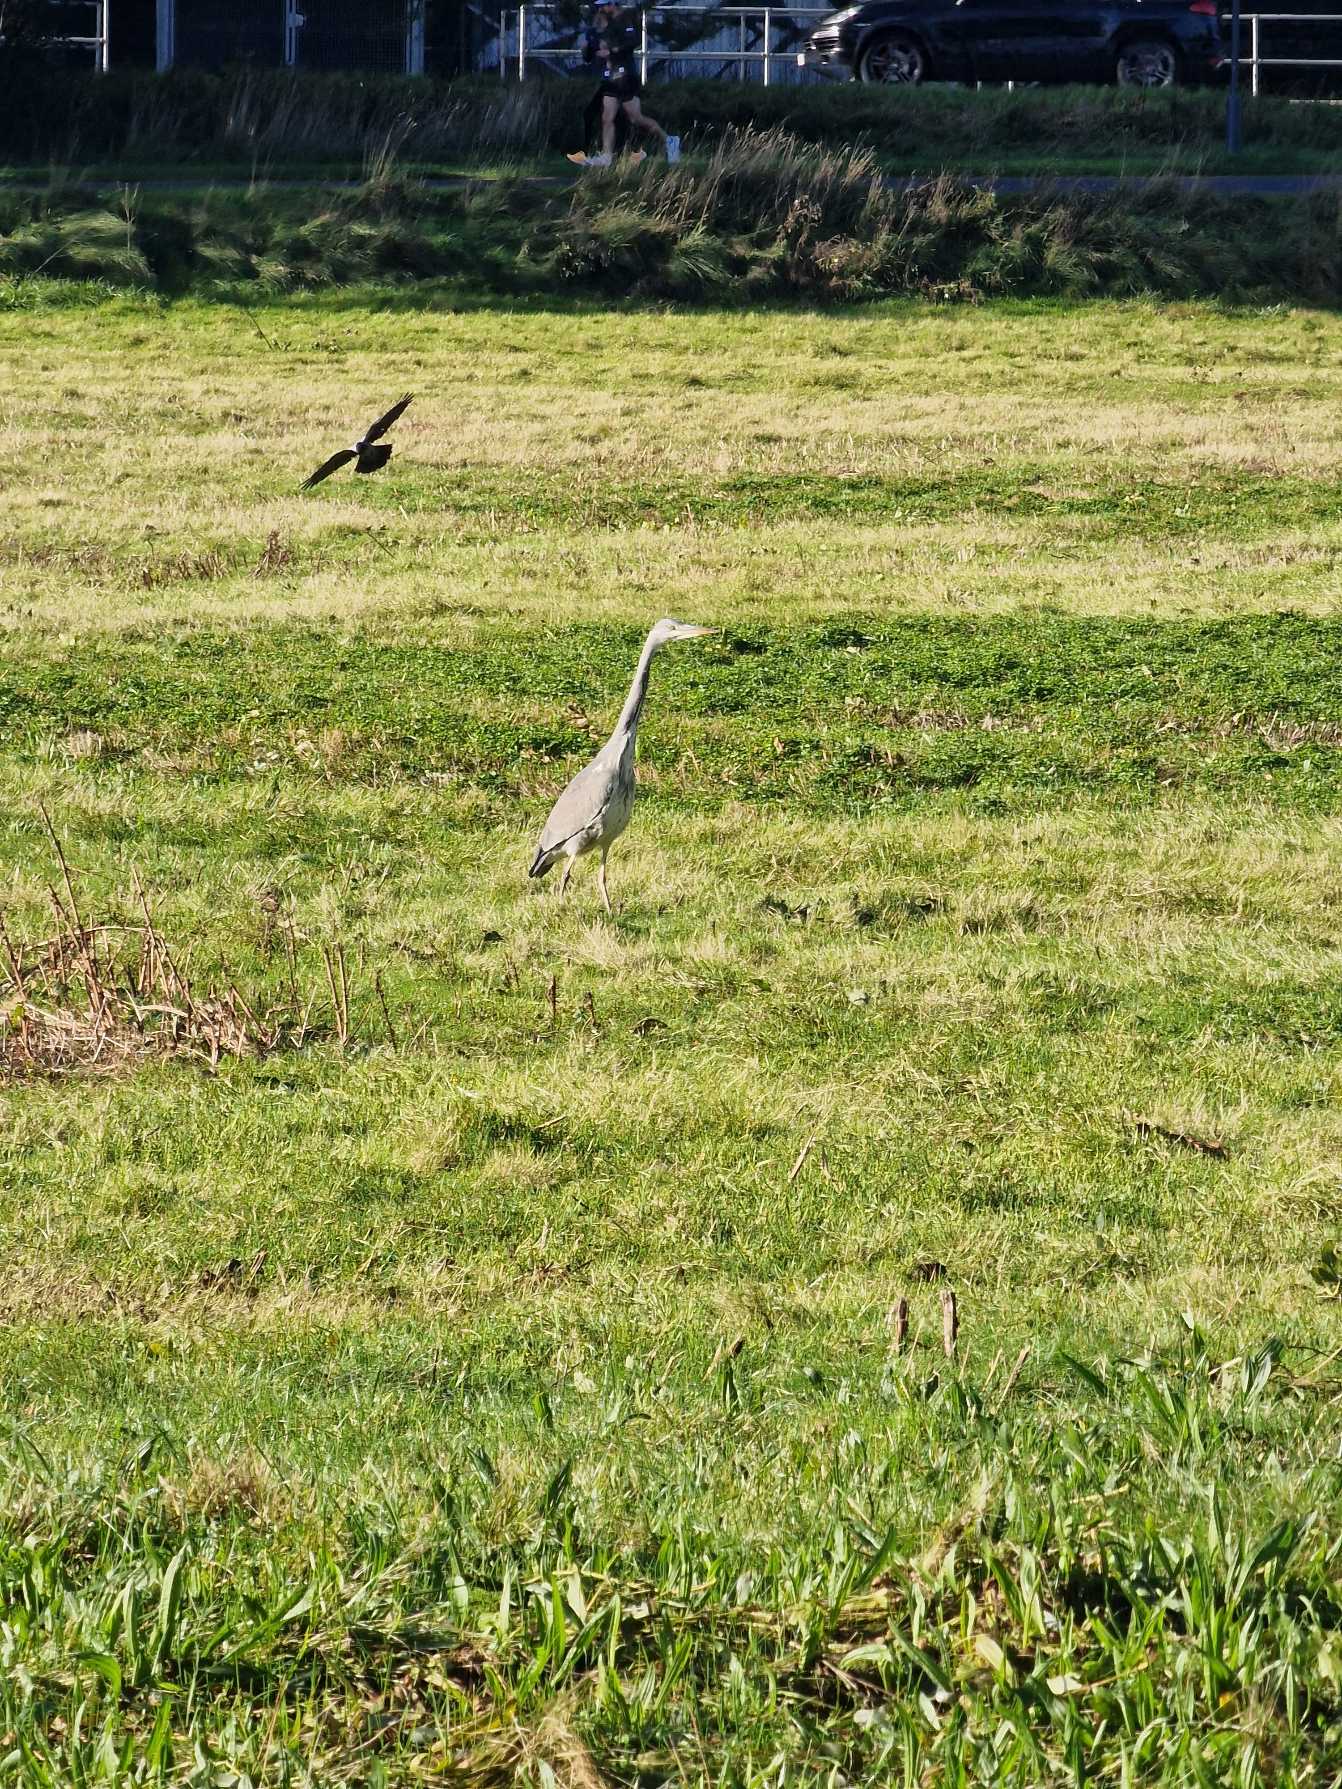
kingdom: Animalia
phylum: Chordata
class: Aves
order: Pelecaniformes
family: Ardeidae
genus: Ardea
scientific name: Ardea cinerea
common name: Fiskehejre
